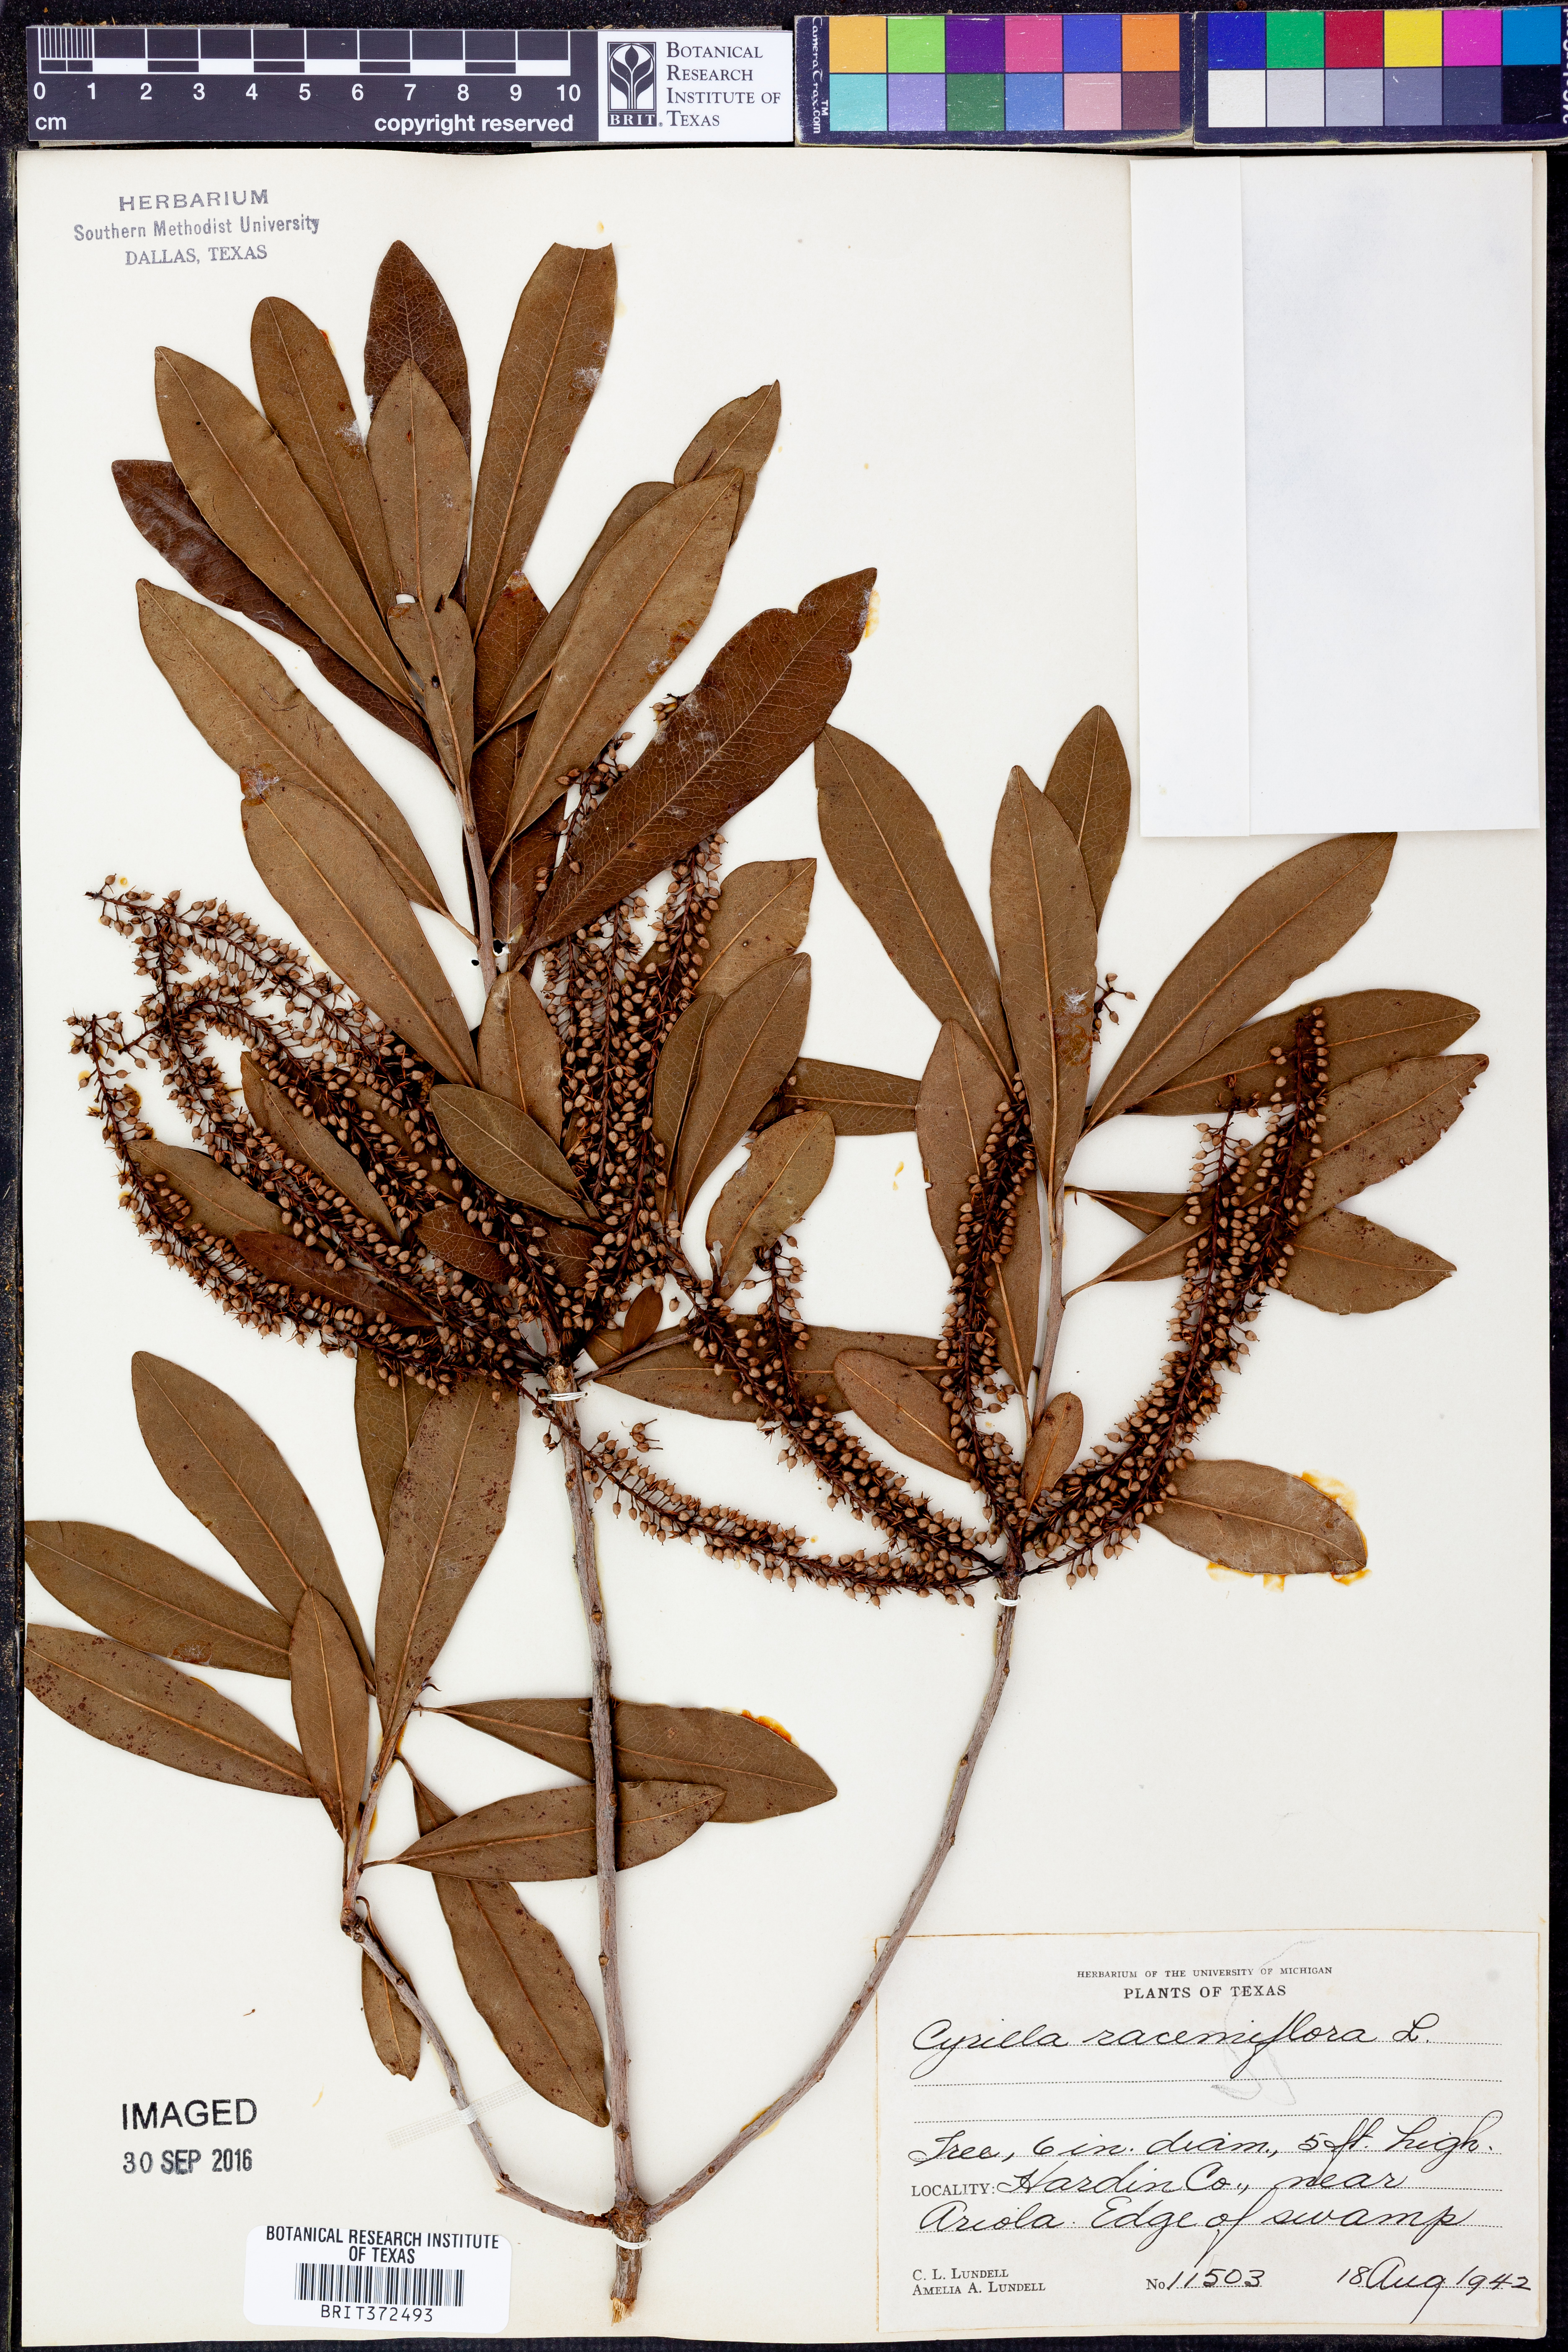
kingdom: Plantae
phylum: Tracheophyta
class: Magnoliopsida
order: Ericales
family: Cyrillaceae
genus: Cyrilla
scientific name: Cyrilla racemiflora
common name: Black titi
